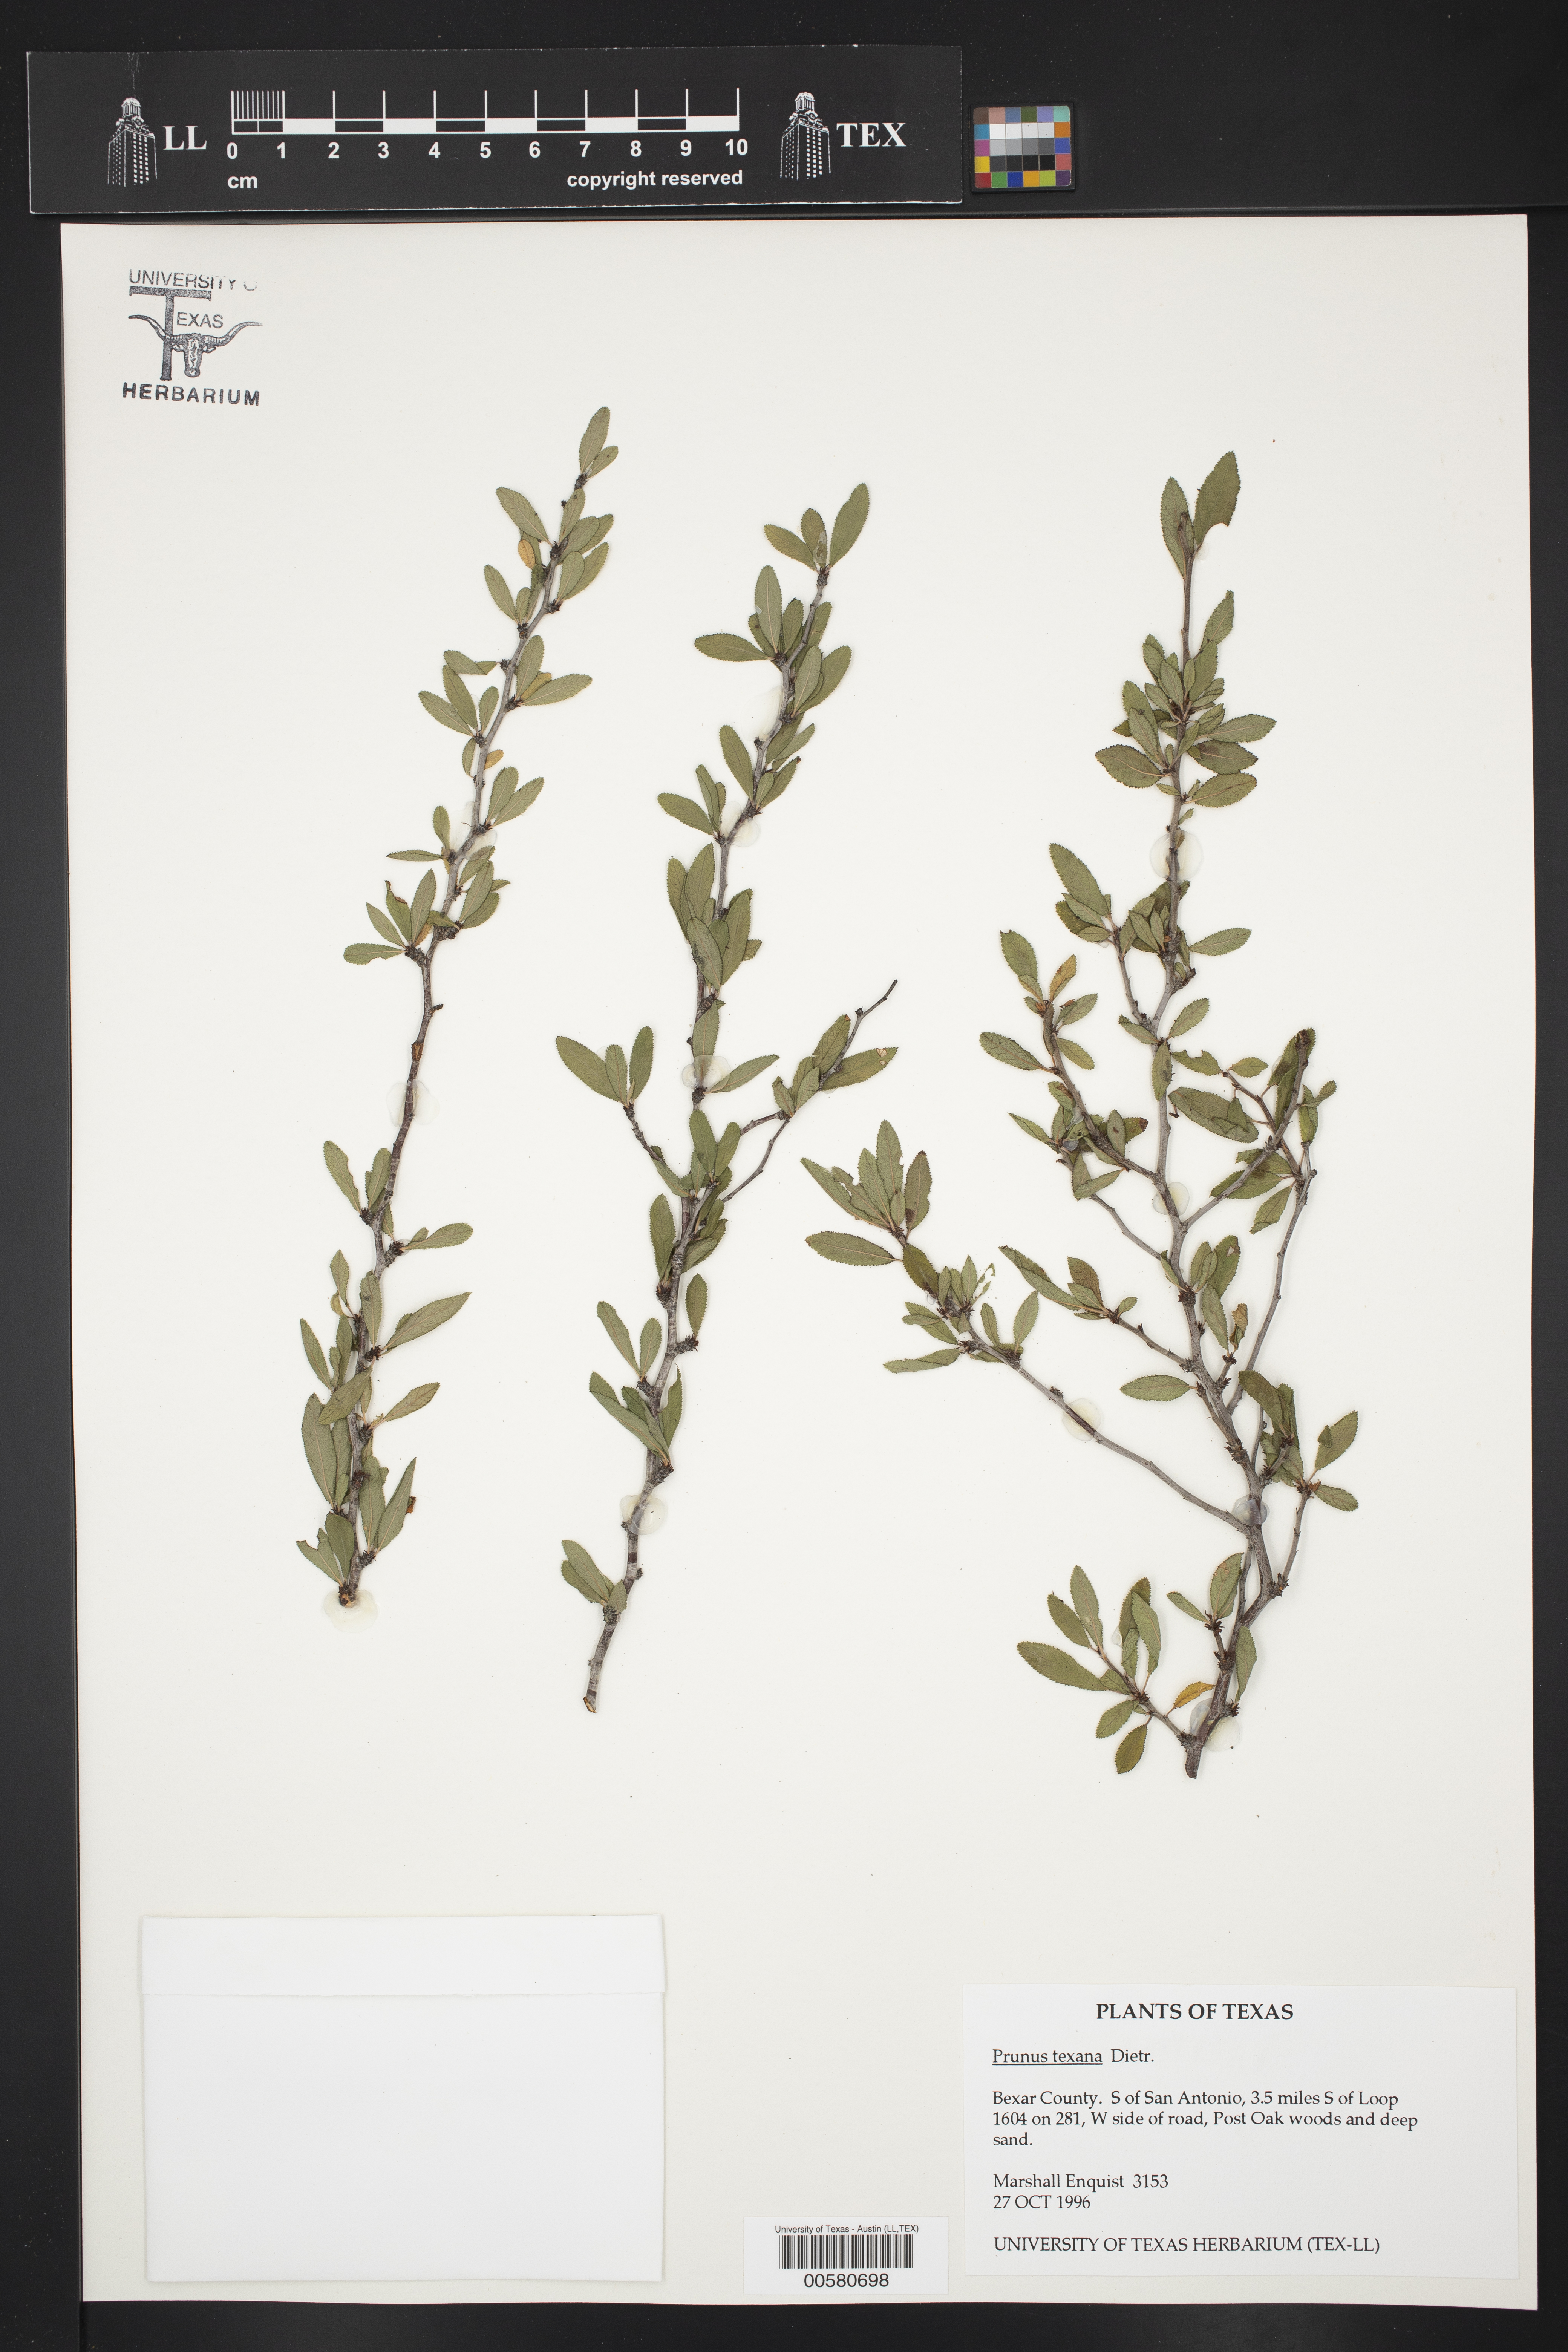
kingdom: Plantae
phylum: Tracheophyta
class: Magnoliopsida
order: Rosales
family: Rosaceae
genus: Prunus
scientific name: Prunus texana
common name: Texas almond cherry
